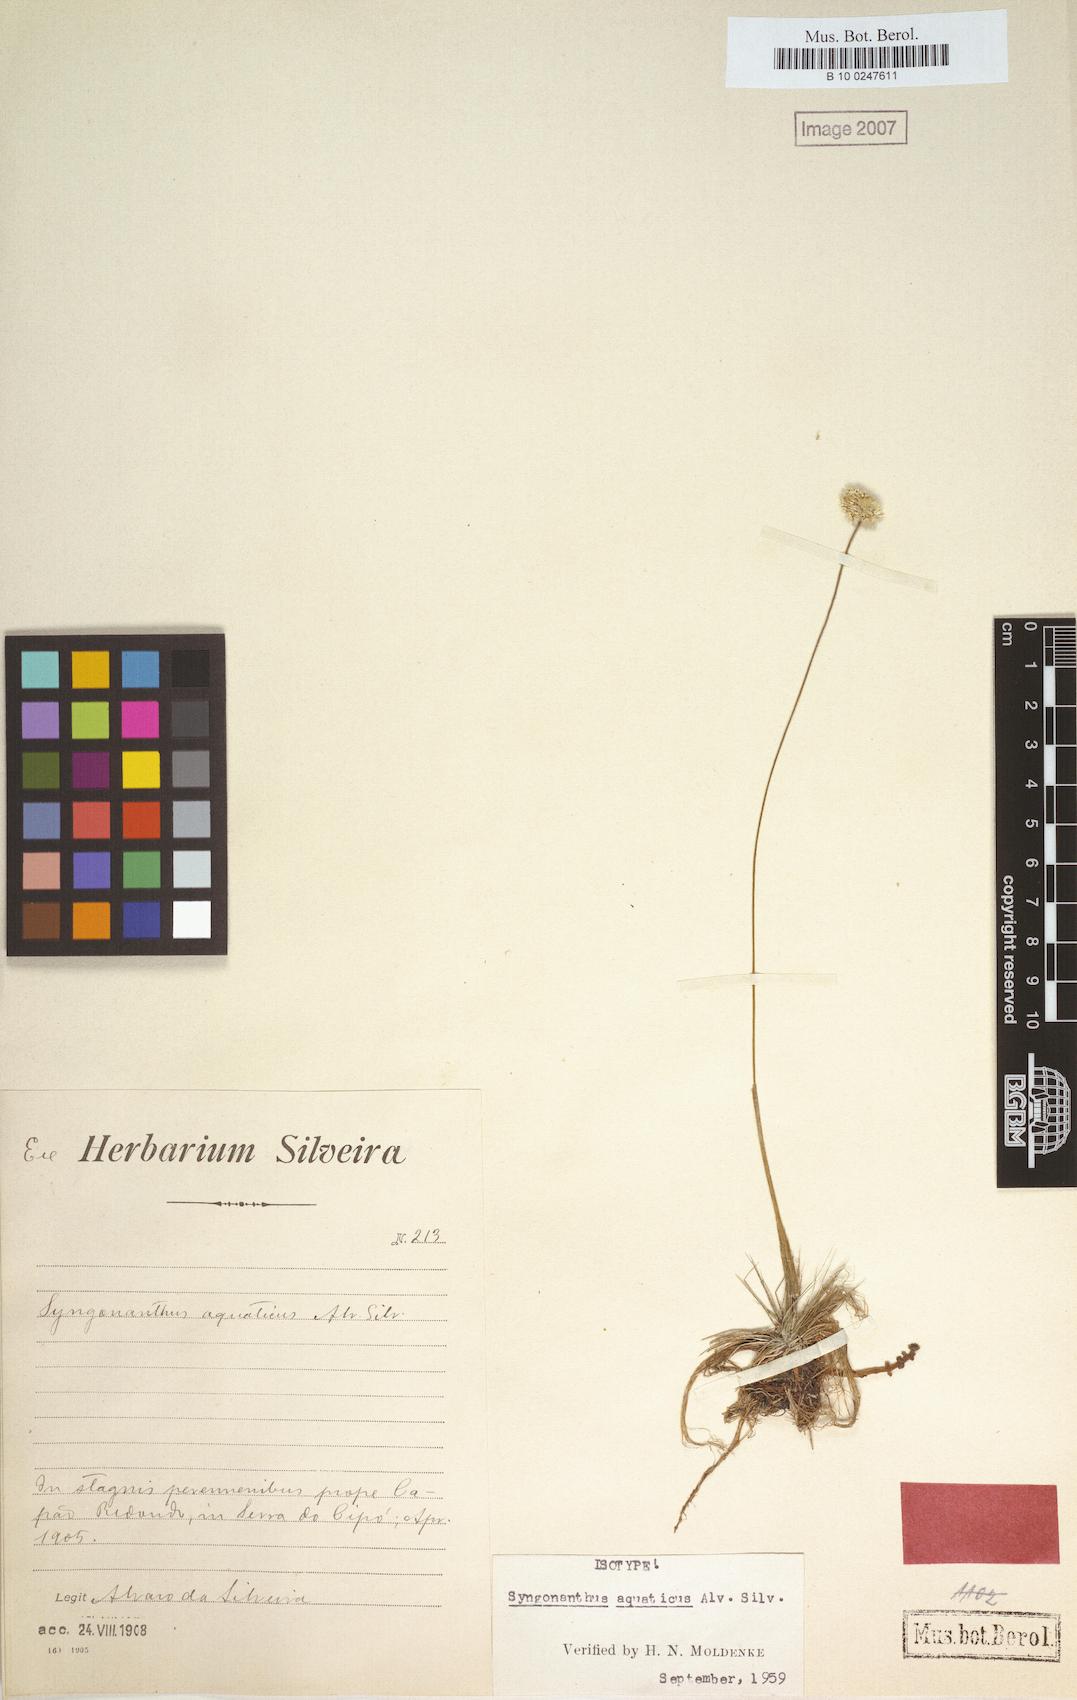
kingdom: Plantae
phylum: Tracheophyta
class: Liliopsida
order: Poales
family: Eriocaulaceae
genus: Syngonanthus
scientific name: Syngonanthus aquaticus
